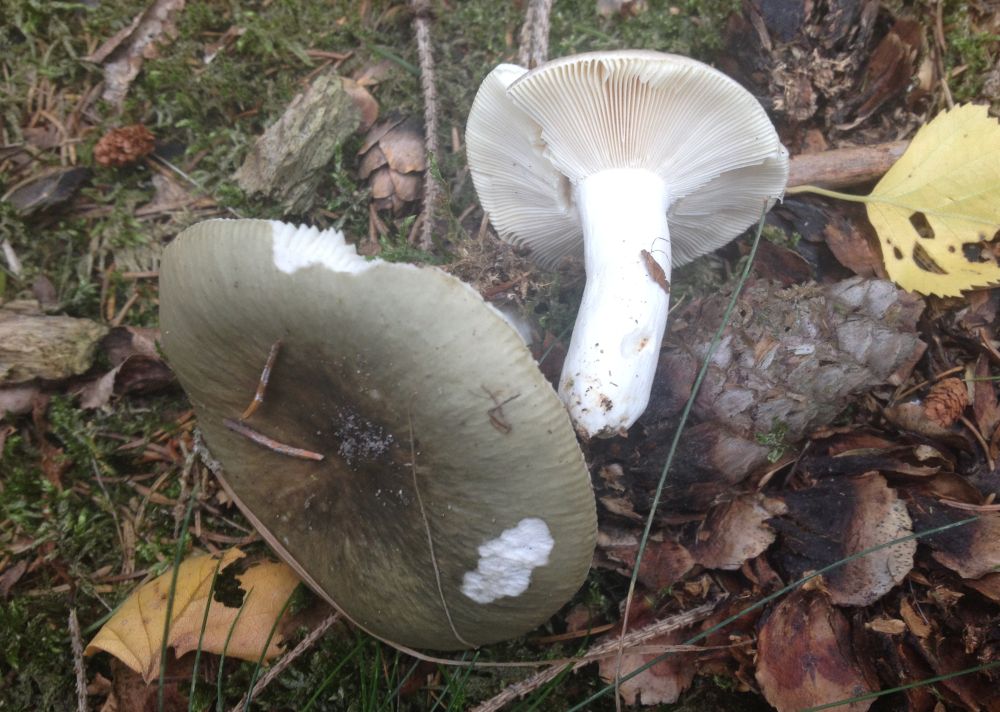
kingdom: Fungi
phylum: Basidiomycota
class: Agaricomycetes
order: Russulales
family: Russulaceae
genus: Russula
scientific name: Russula aeruginea
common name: græsgrøn skørhat
